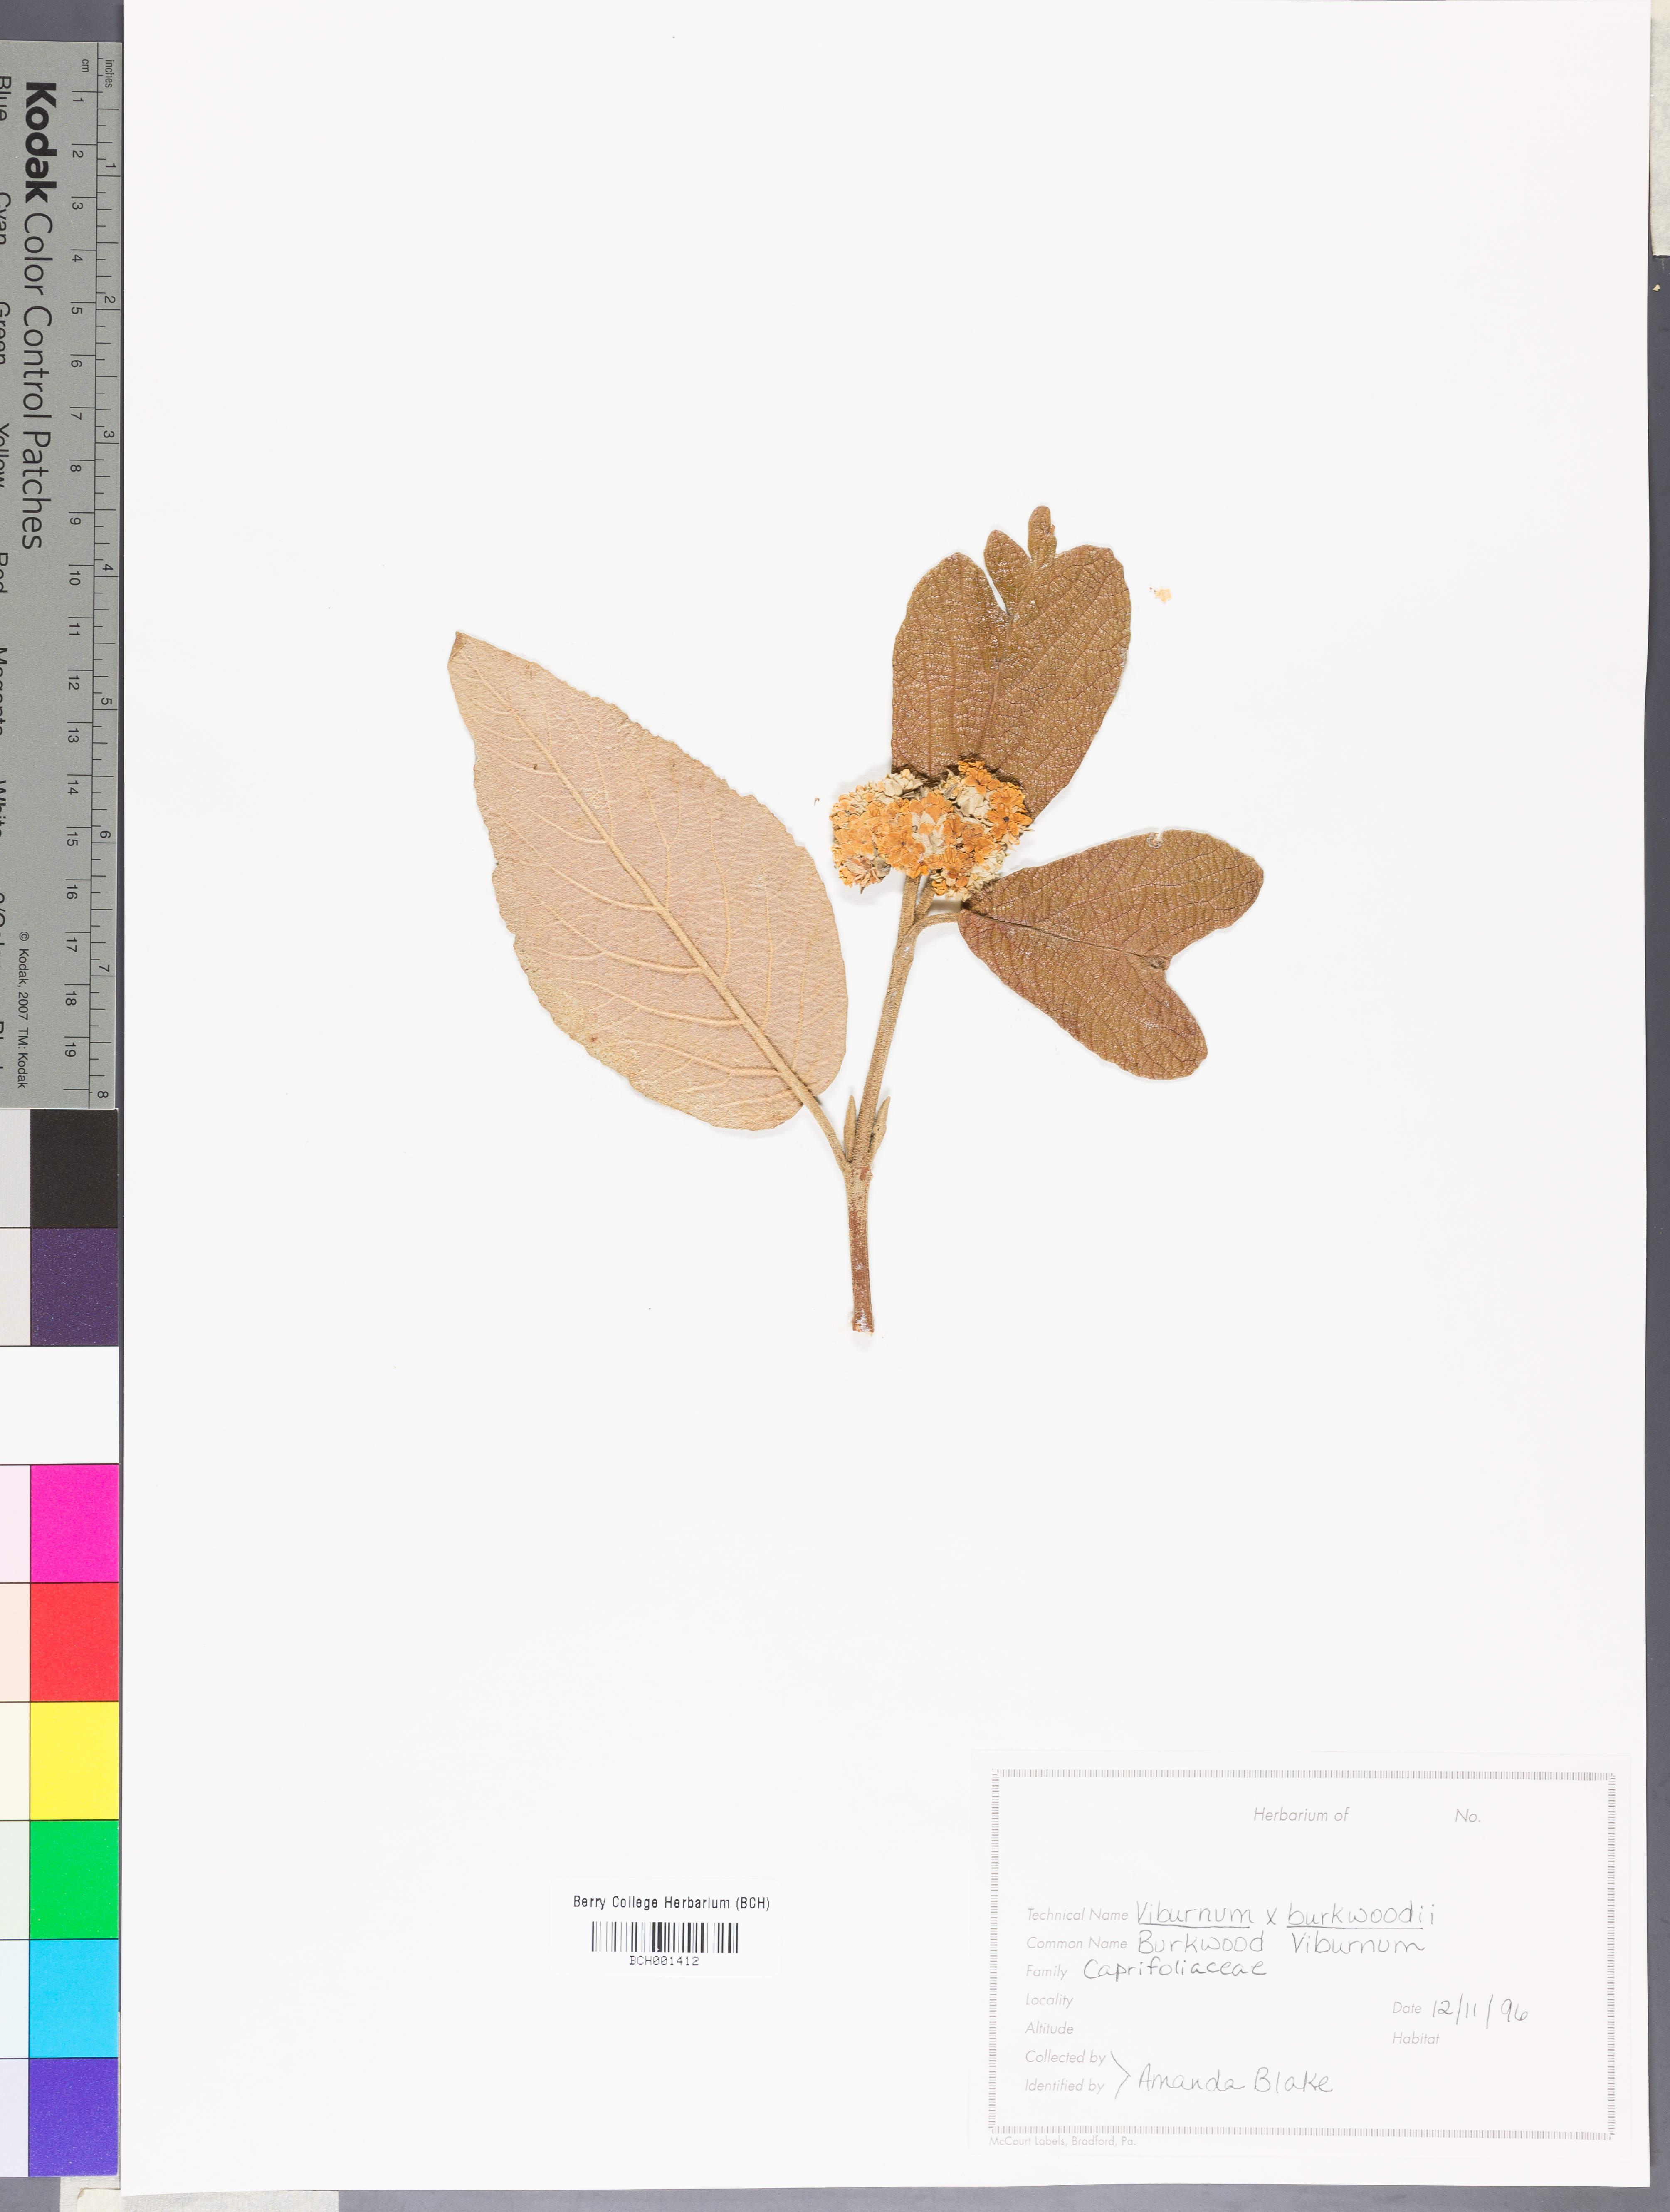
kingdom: Plantae
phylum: Tracheophyta
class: Magnoliopsida
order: Dipsacales
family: Viburnaceae
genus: Viburnum
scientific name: Viburnum burkwoodii
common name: Burkwood's viburnum
